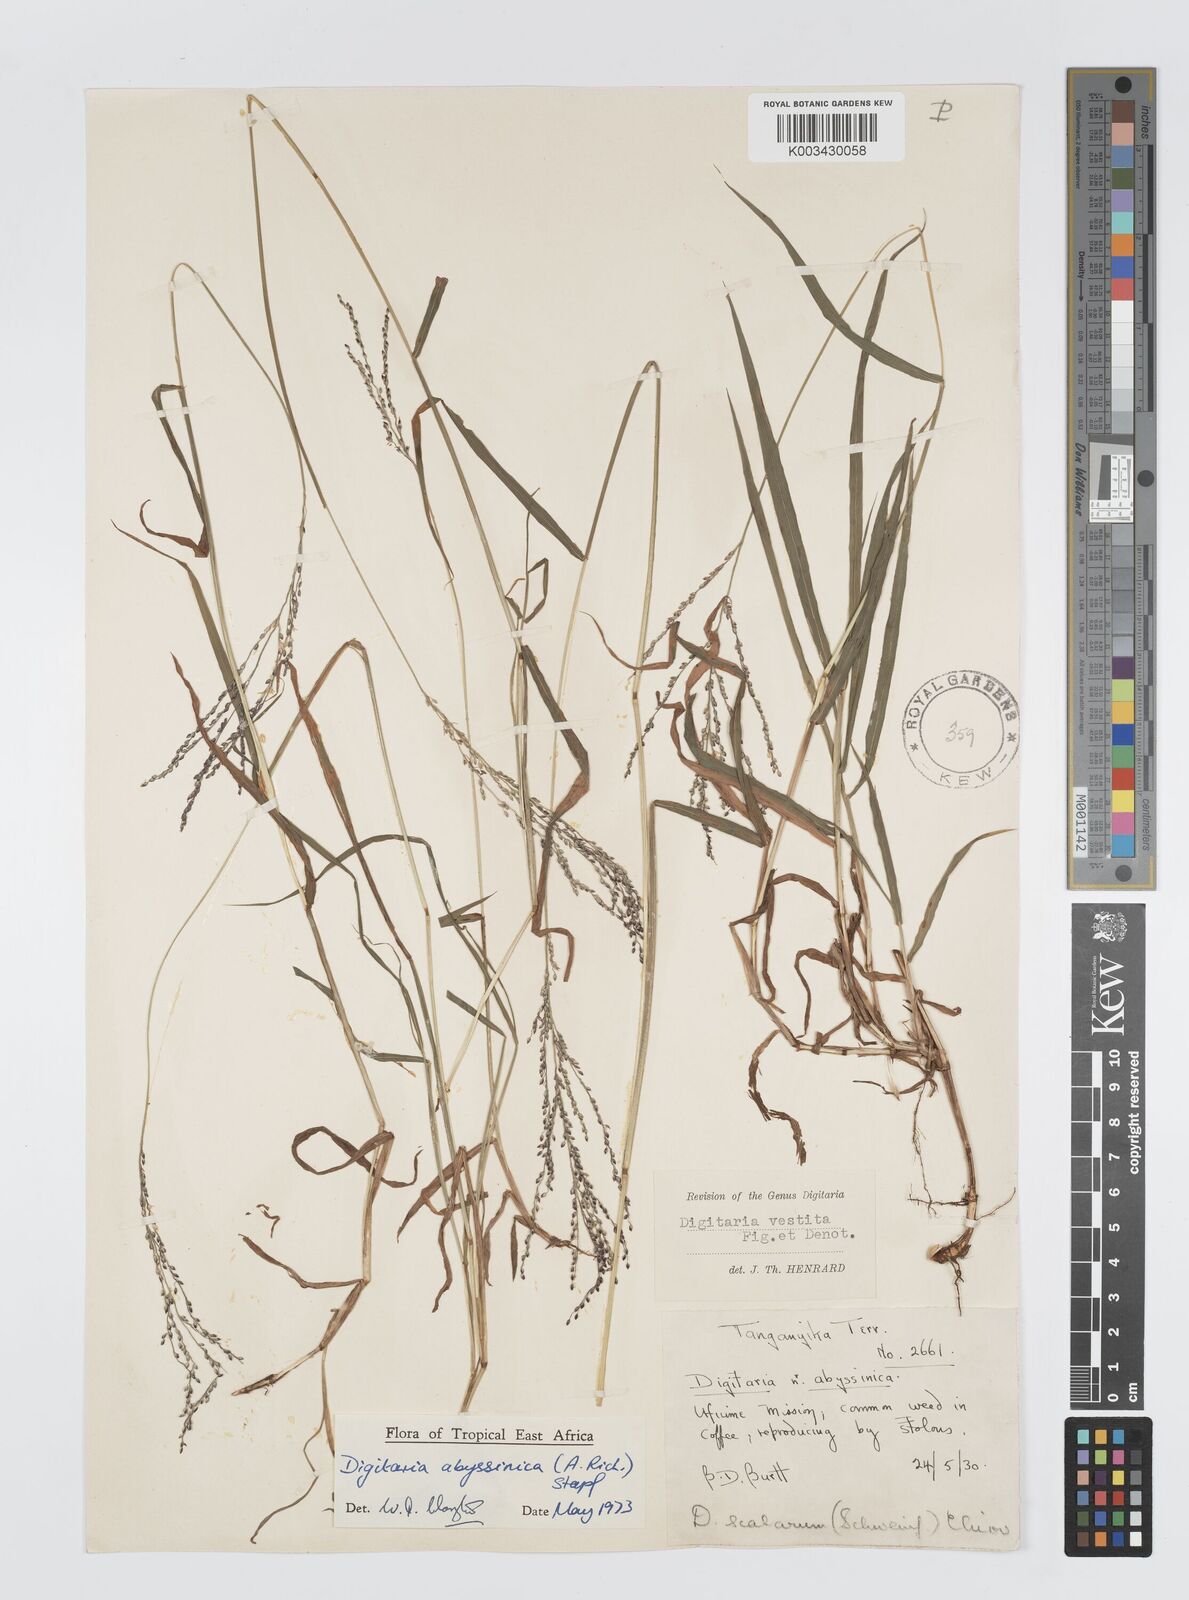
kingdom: Plantae
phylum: Tracheophyta
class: Liliopsida
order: Poales
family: Poaceae
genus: Digitaria
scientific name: Digitaria abyssinica
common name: African couchgrass
